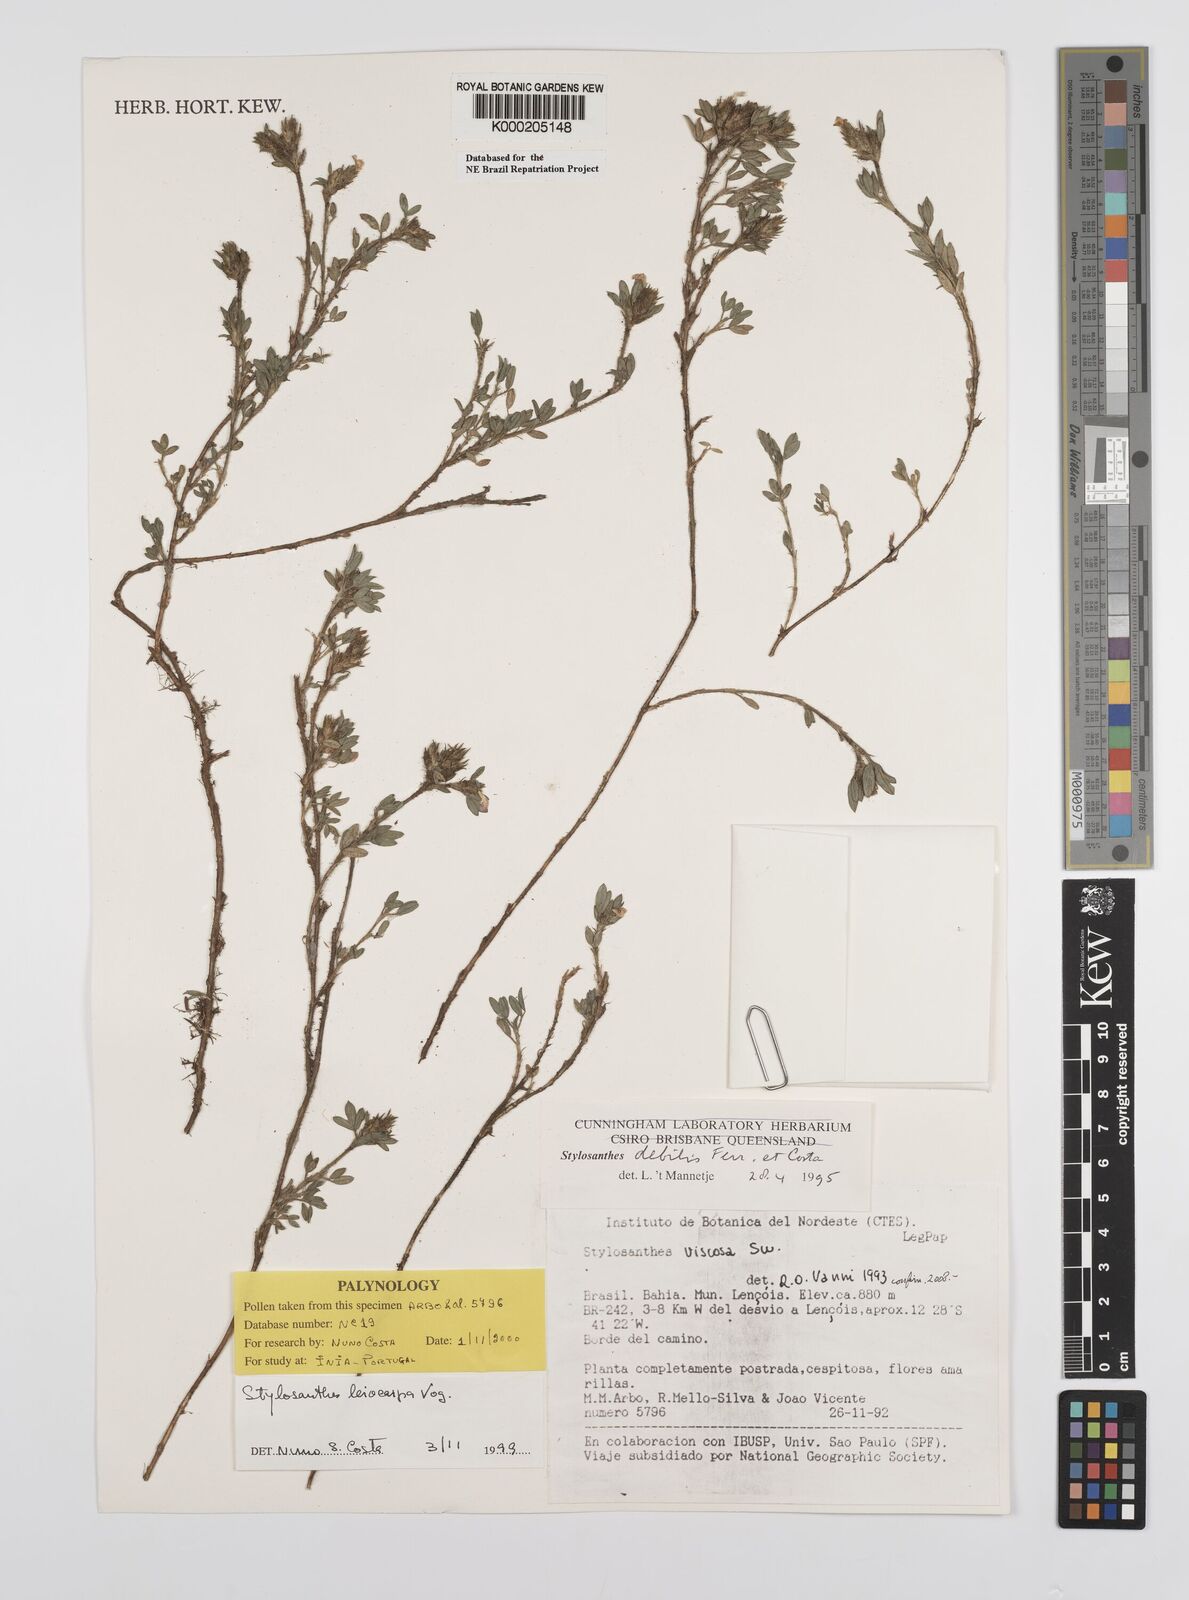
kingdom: Plantae
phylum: Tracheophyta
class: Magnoliopsida
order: Fabales
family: Fabaceae
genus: Stylosanthes
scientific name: Stylosanthes leiocarpa
